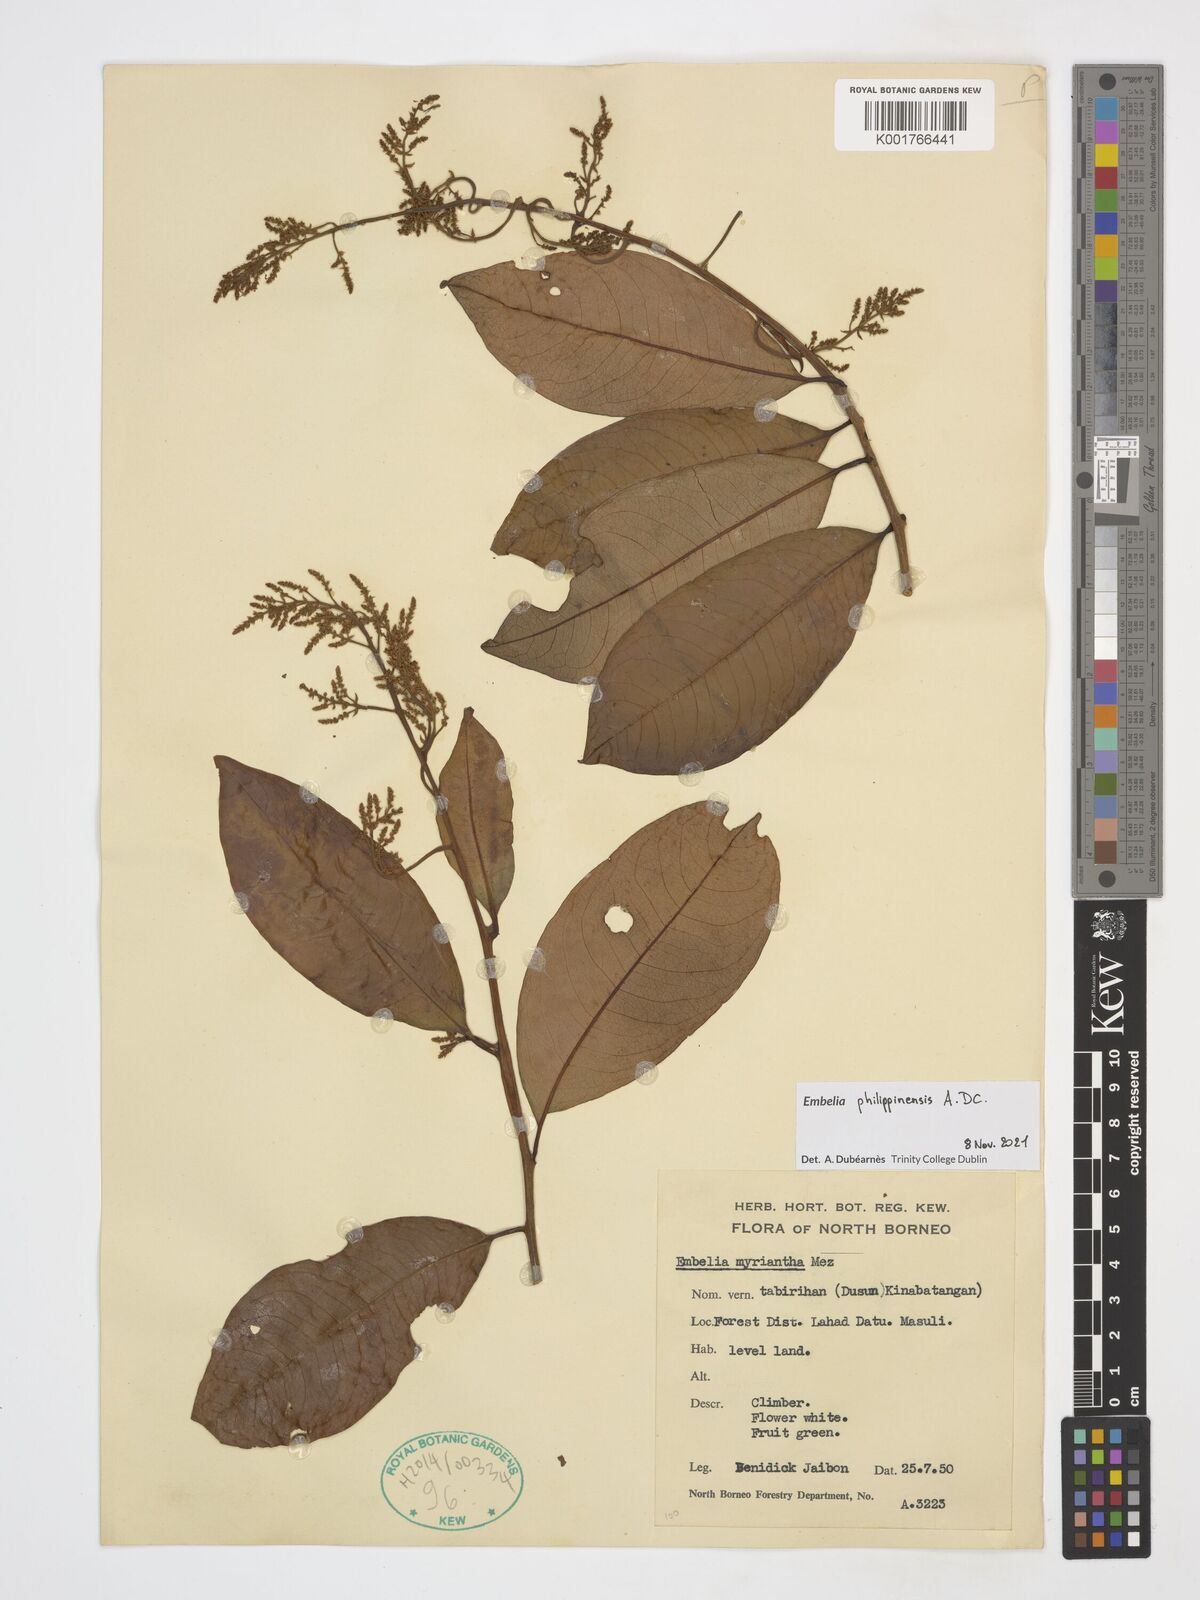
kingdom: Plantae
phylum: Tracheophyta
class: Magnoliopsida
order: Ericales
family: Primulaceae
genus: Embelia
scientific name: Embelia philippinensis
